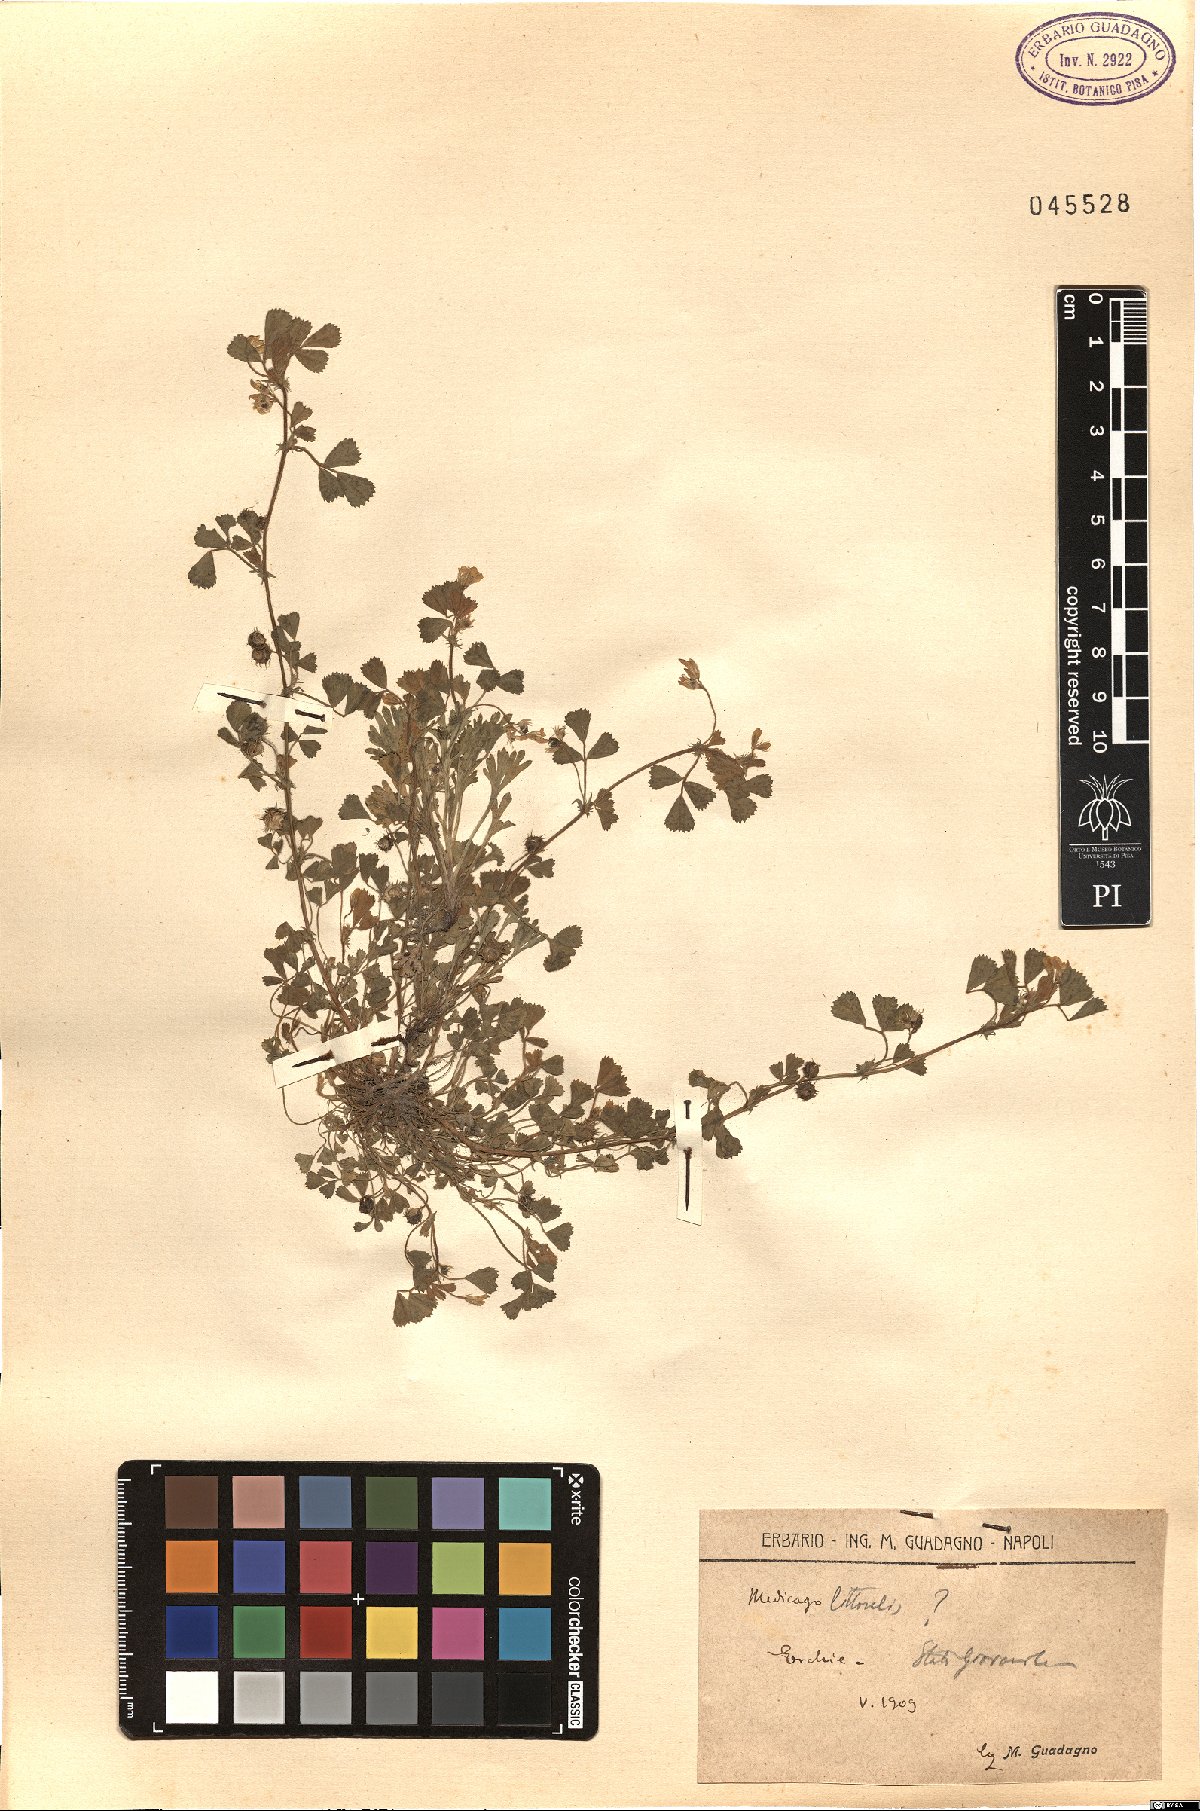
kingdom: Plantae
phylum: Tracheophyta
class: Magnoliopsida
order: Fabales
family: Fabaceae
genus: Medicago
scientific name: Medicago littoralis
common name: Shore medick
